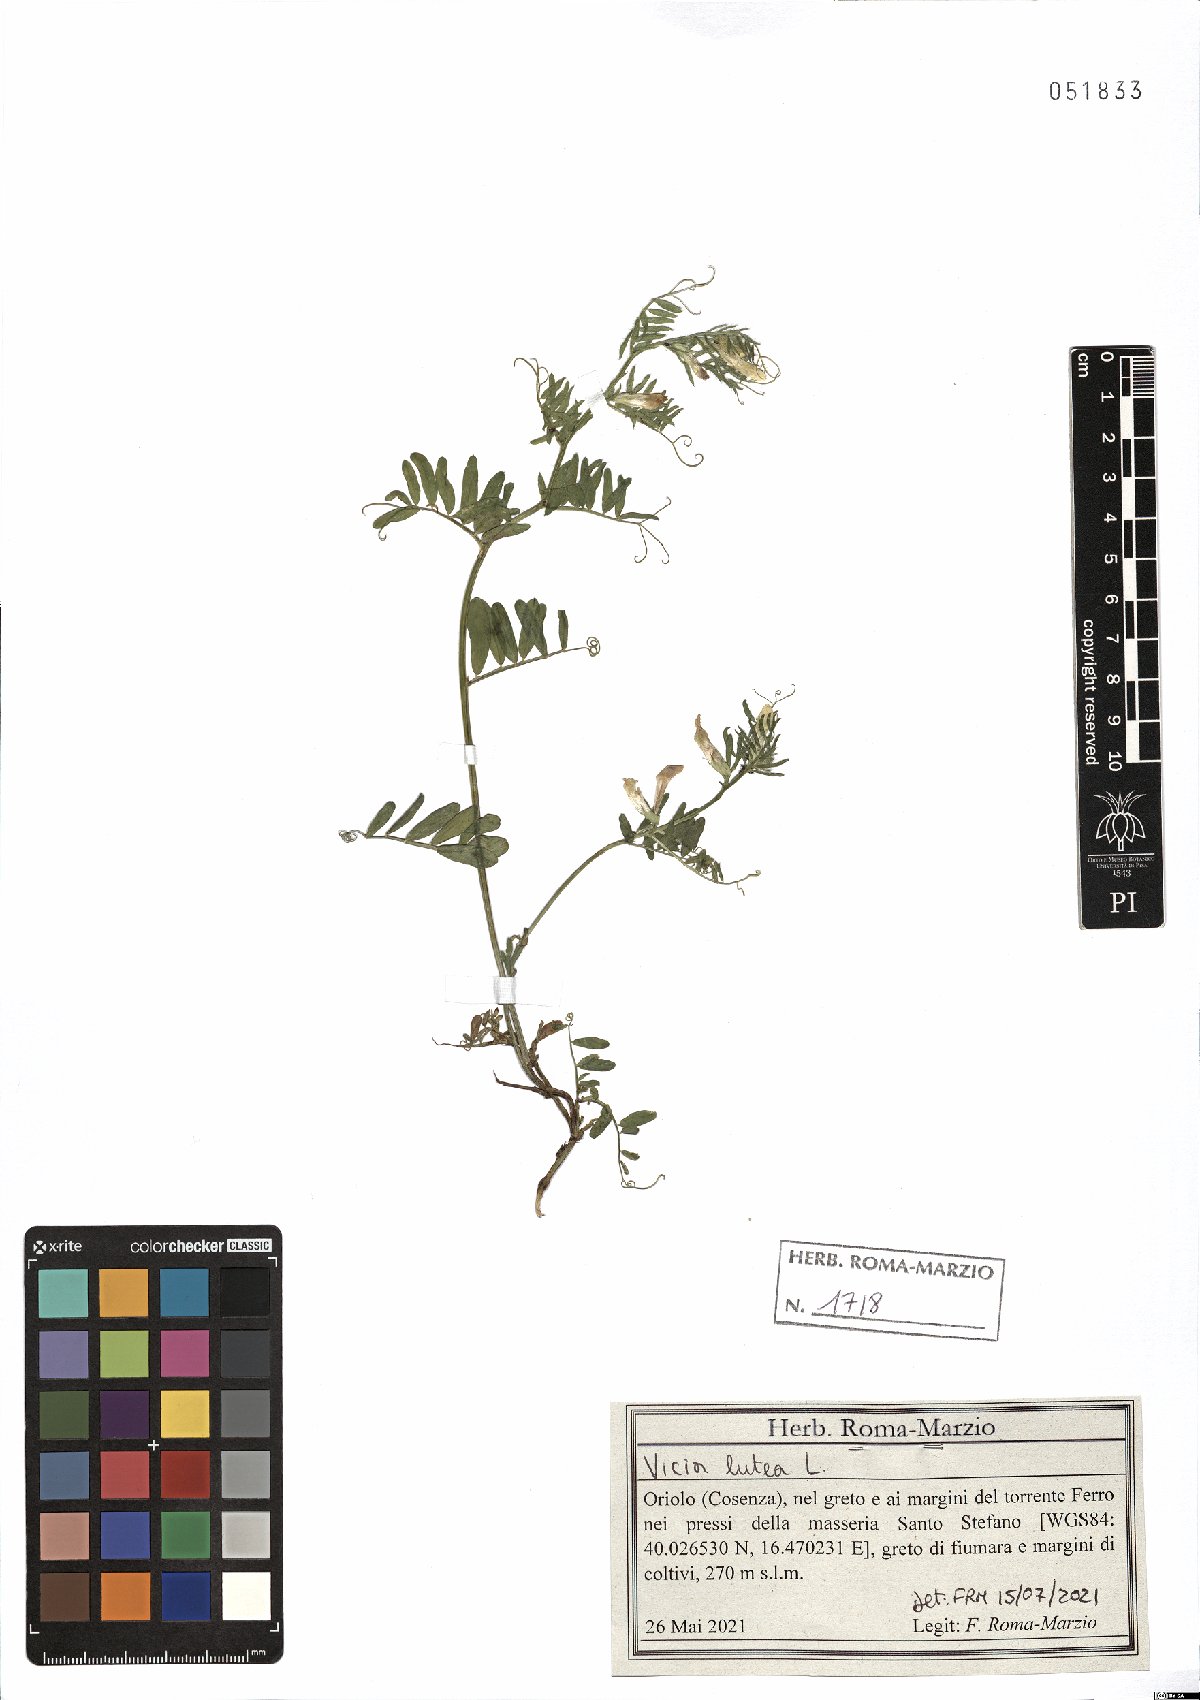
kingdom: Plantae
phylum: Tracheophyta
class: Magnoliopsida
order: Fabales
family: Fabaceae
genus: Vicia
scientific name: Vicia lutea
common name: Smooth yellow vetch
